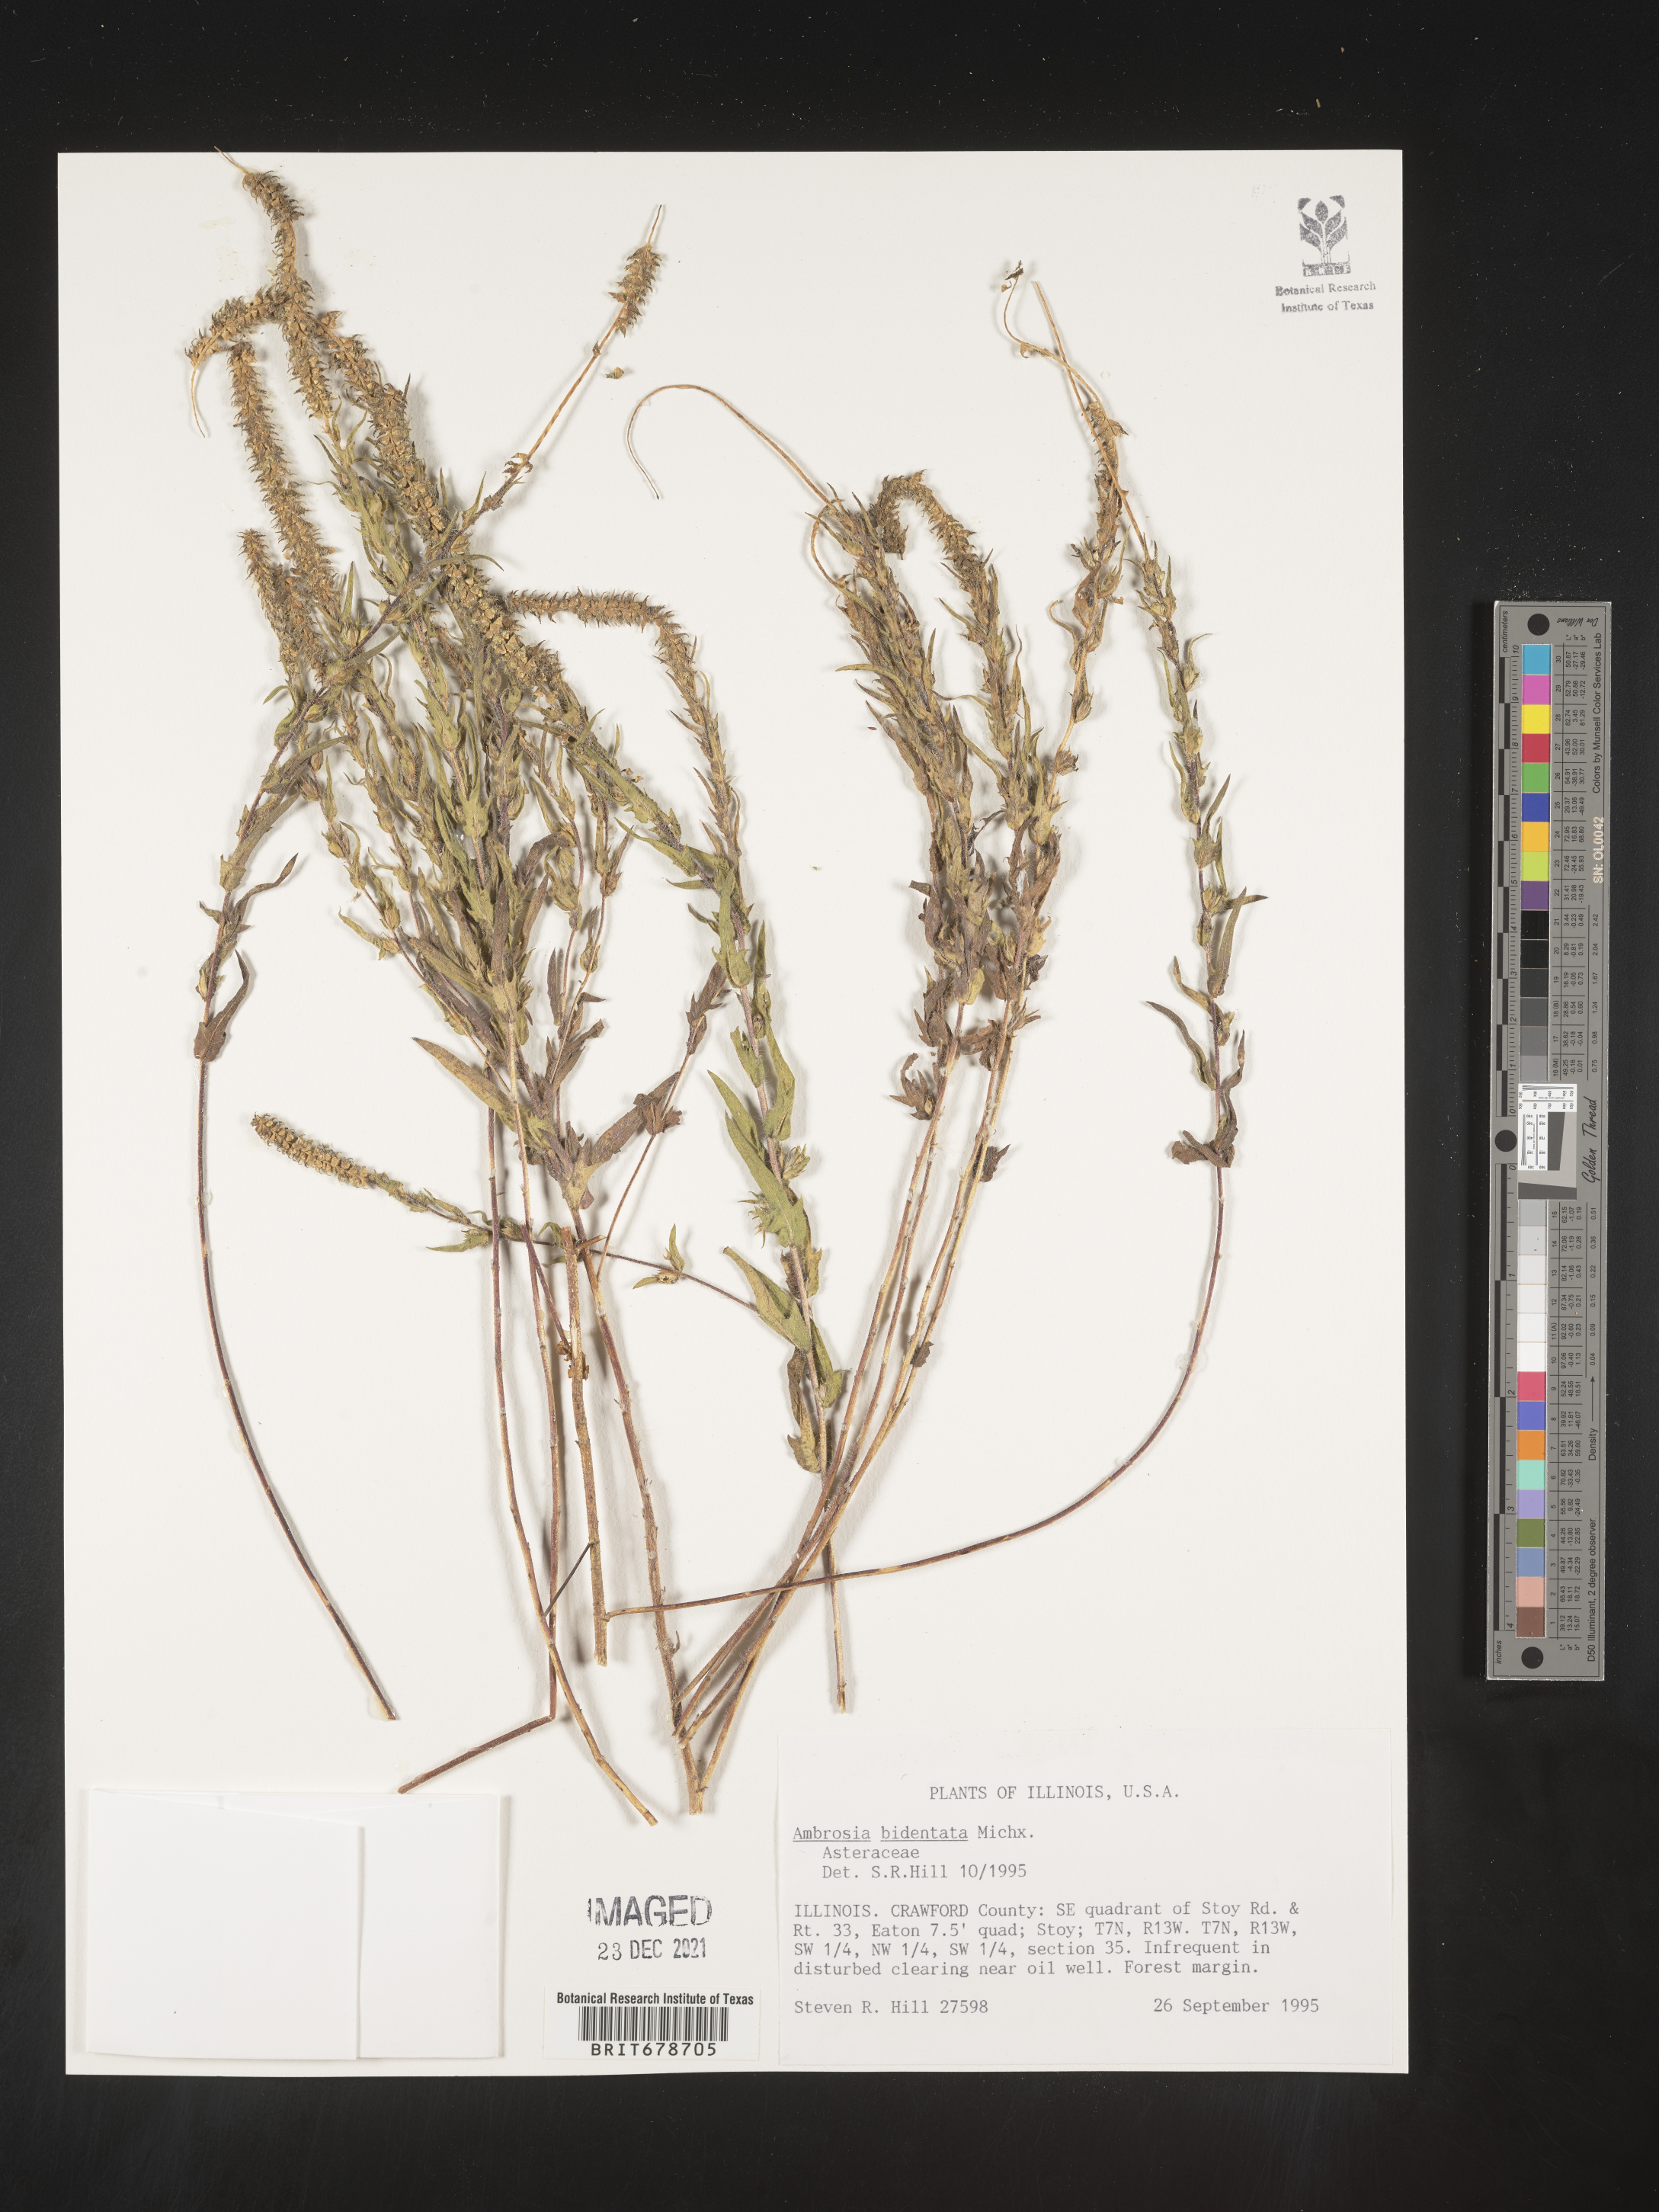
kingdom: Plantae
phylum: Tracheophyta
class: Magnoliopsida
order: Asterales
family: Asteraceae
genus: Ambrosia
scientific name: Ambrosia bidentata
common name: Southern ragweed
